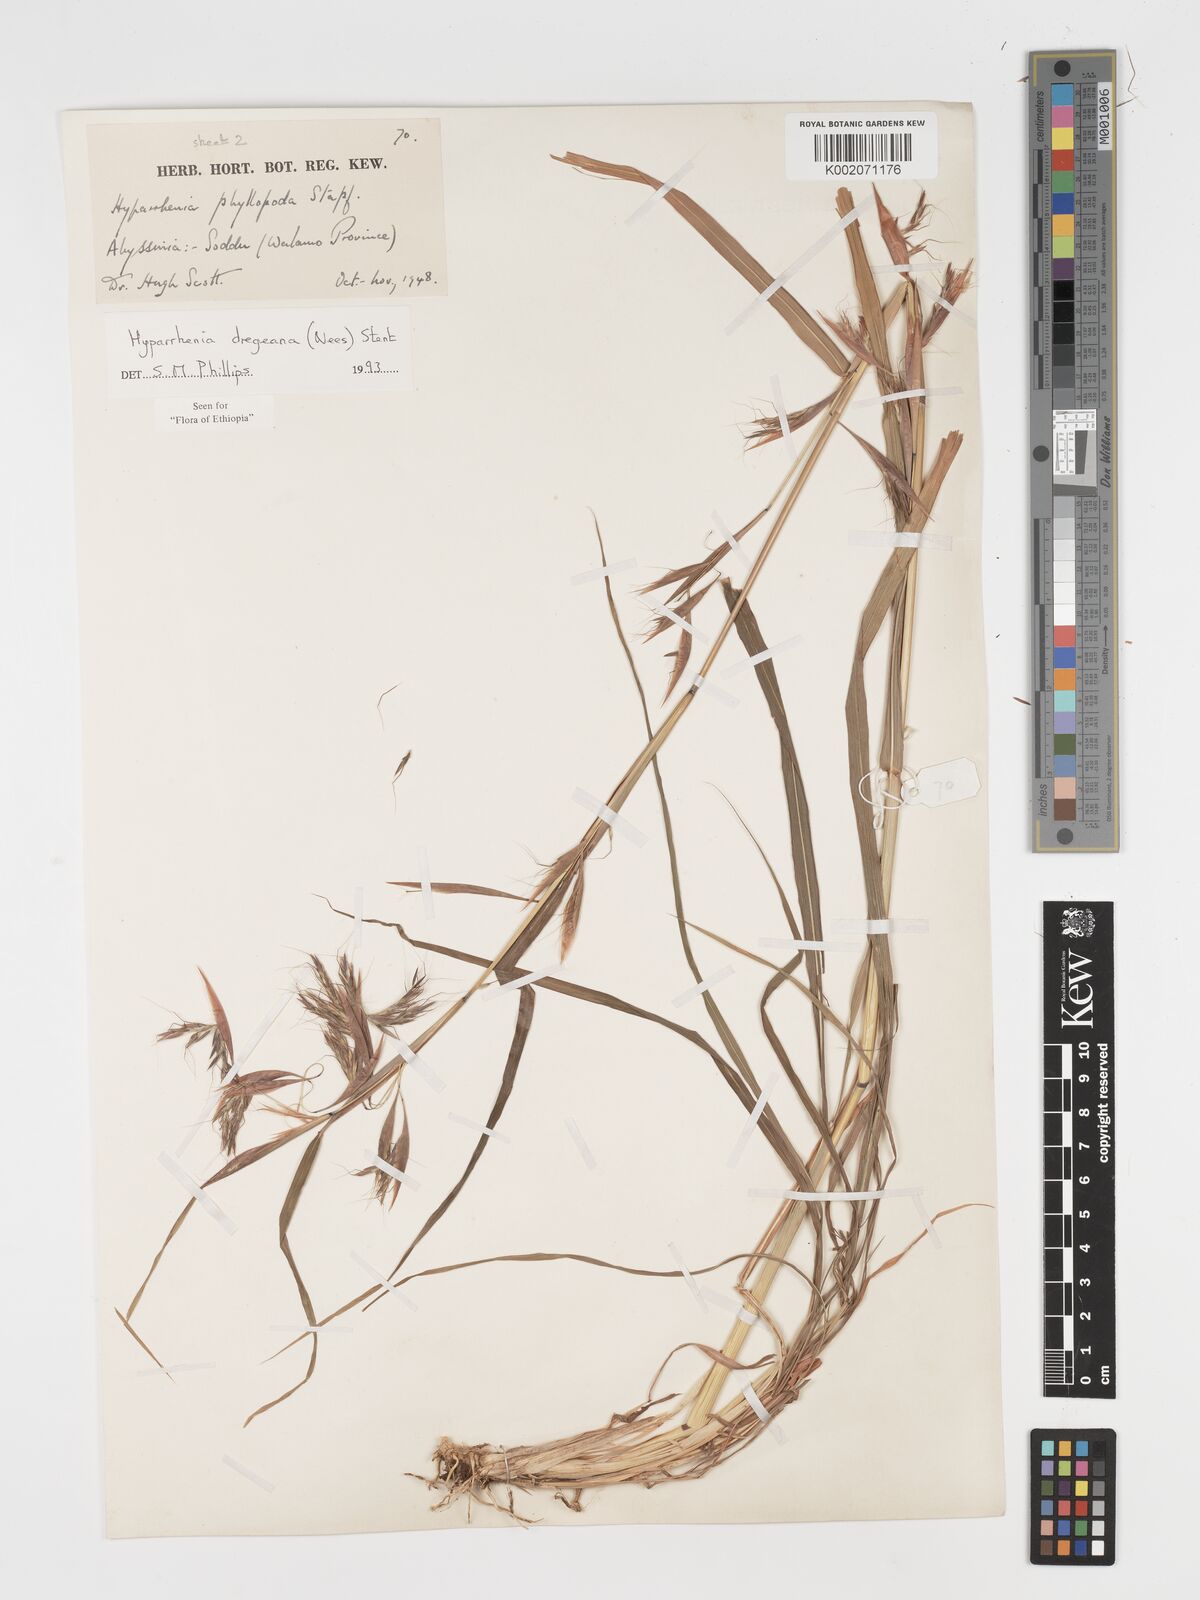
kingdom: Plantae
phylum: Tracheophyta
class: Liliopsida
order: Poales
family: Poaceae
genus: Hyparrhenia
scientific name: Hyparrhenia dregeana
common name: Silky thatching grass
